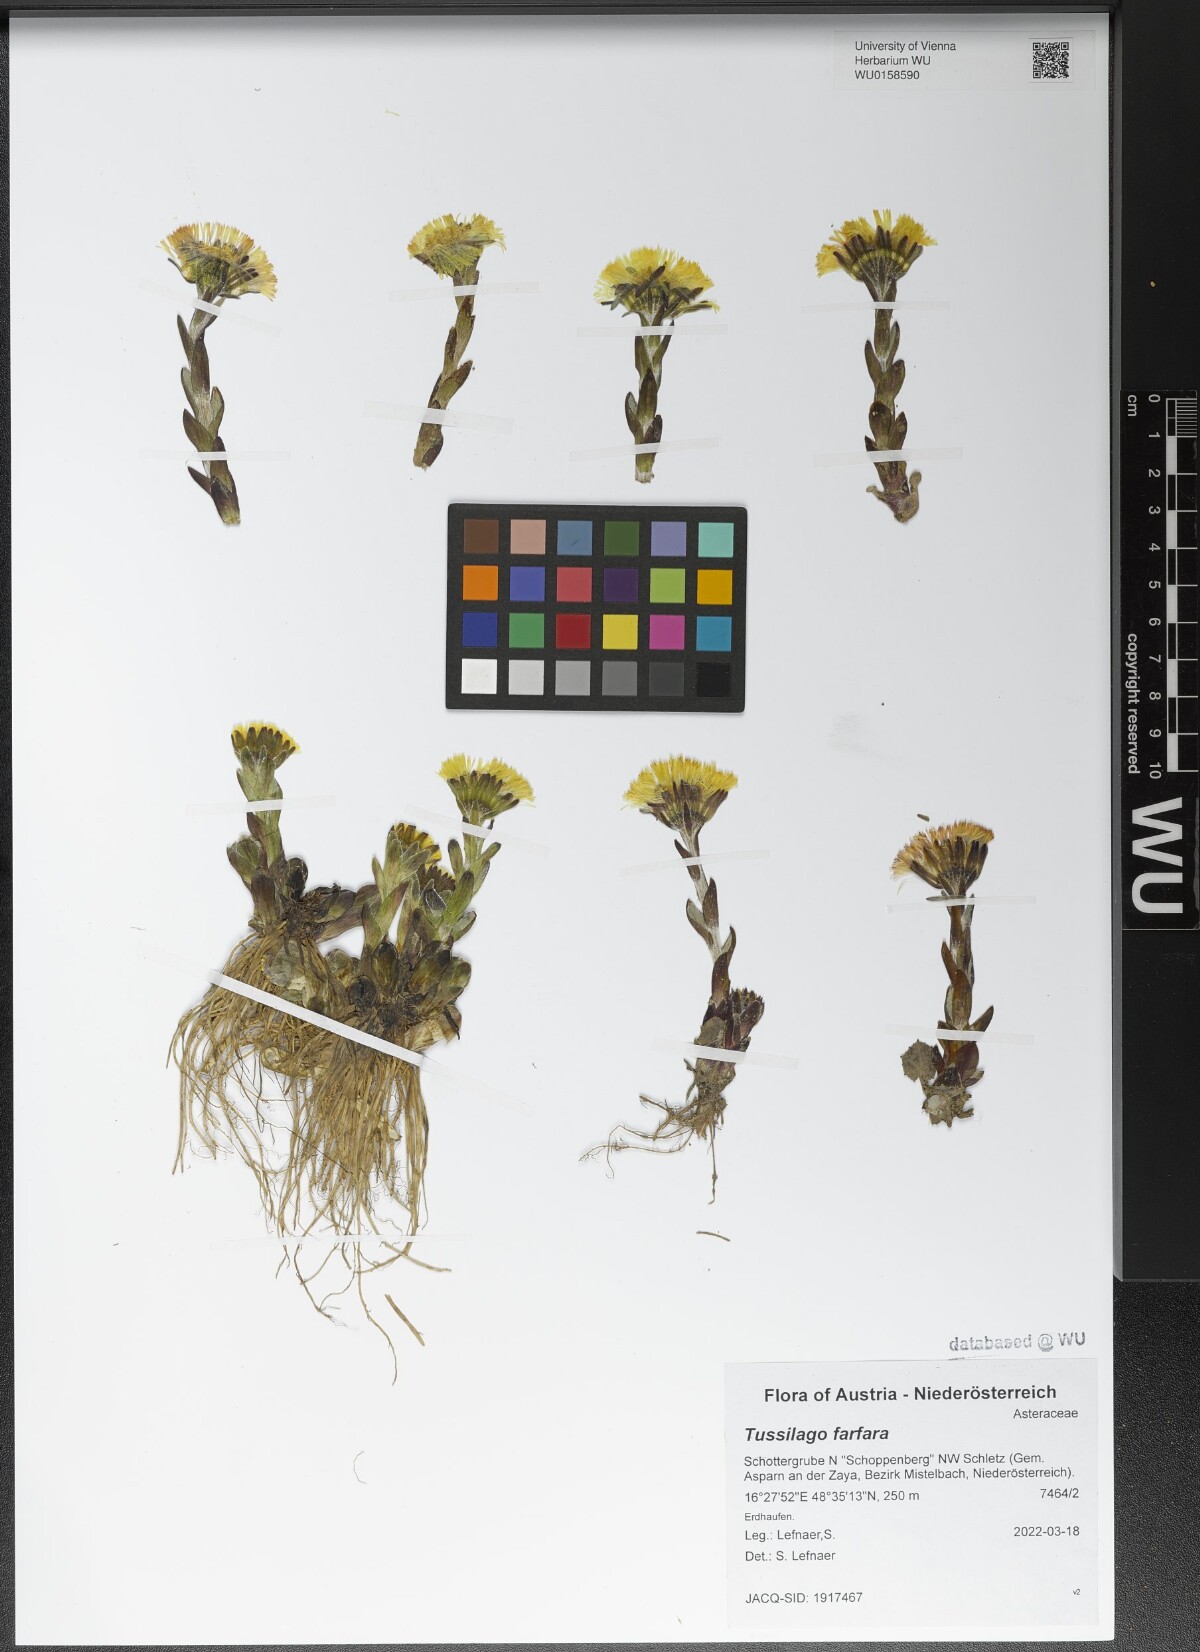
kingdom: Plantae
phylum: Tracheophyta
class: Magnoliopsida
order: Asterales
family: Asteraceae
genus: Tussilago
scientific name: Tussilago farfara
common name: Coltsfoot
